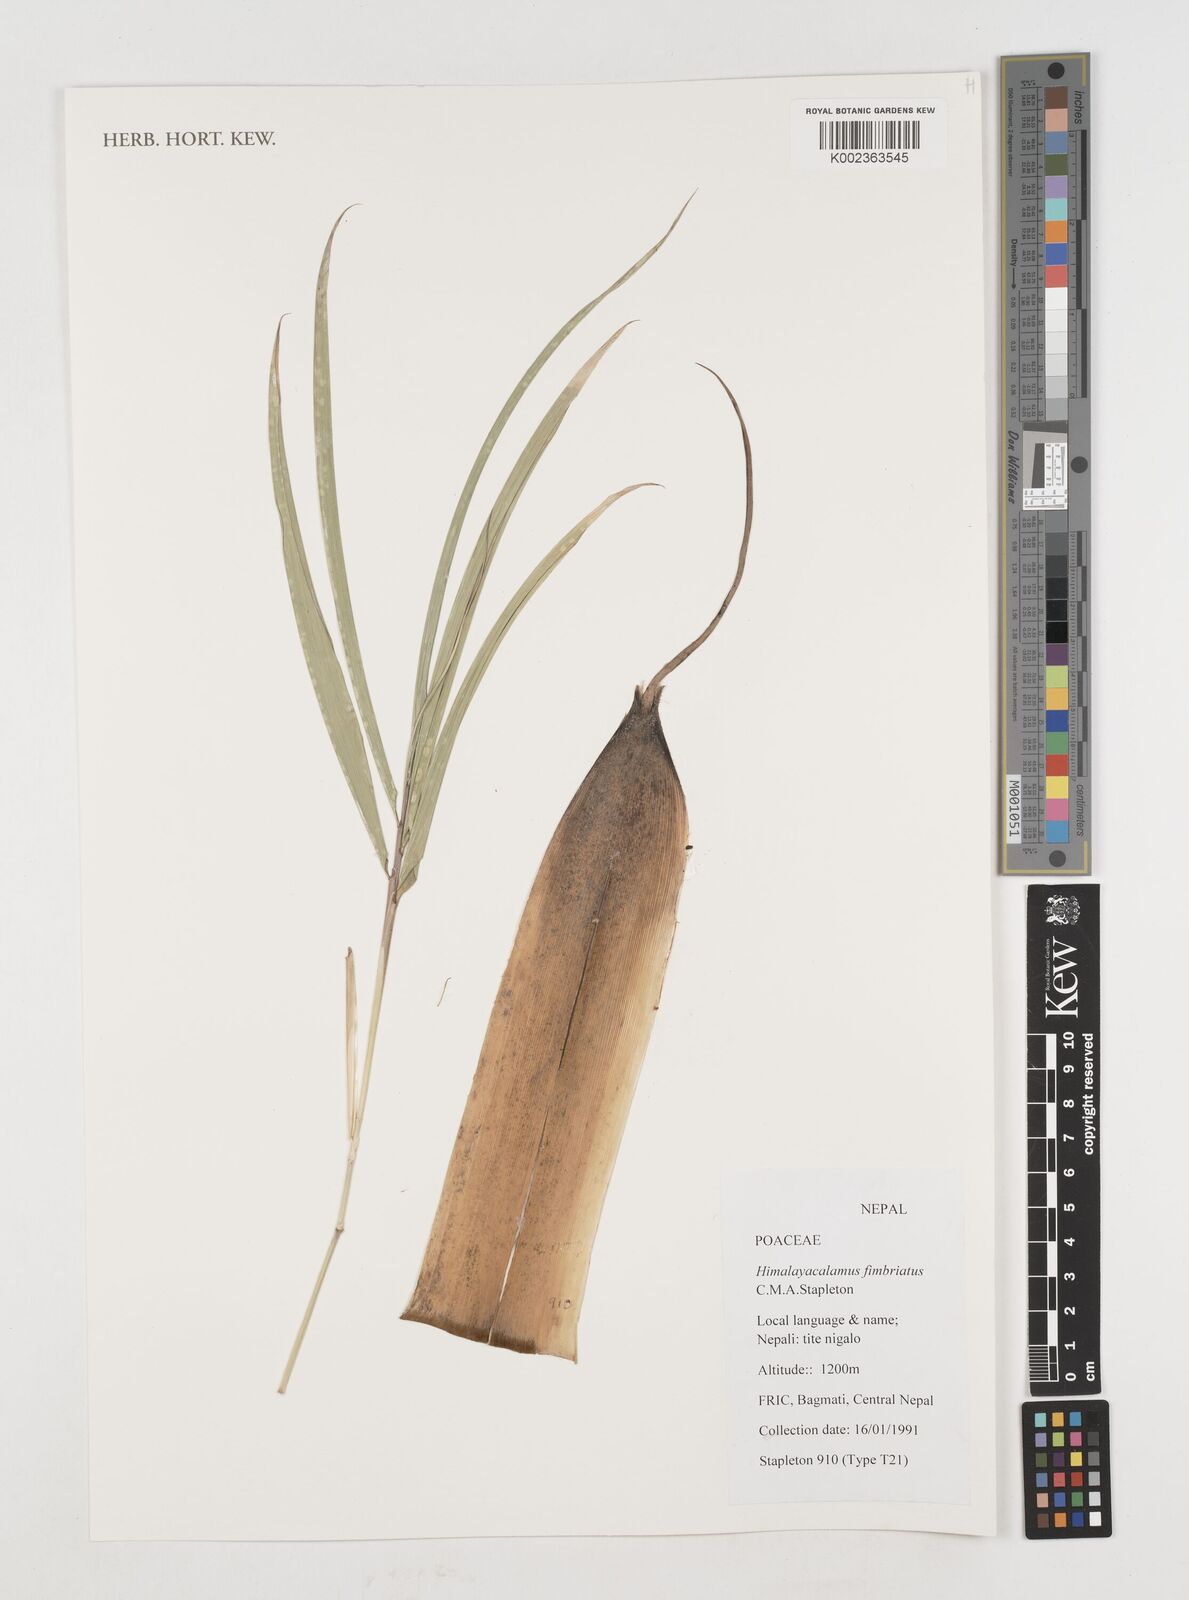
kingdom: Plantae
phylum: Tracheophyta
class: Liliopsida
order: Poales
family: Poaceae
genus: Himalayacalamus
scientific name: Himalayacalamus fimbriatus
